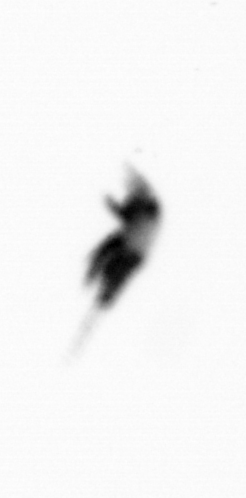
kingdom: Animalia
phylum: Arthropoda
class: Copepoda
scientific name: Copepoda
